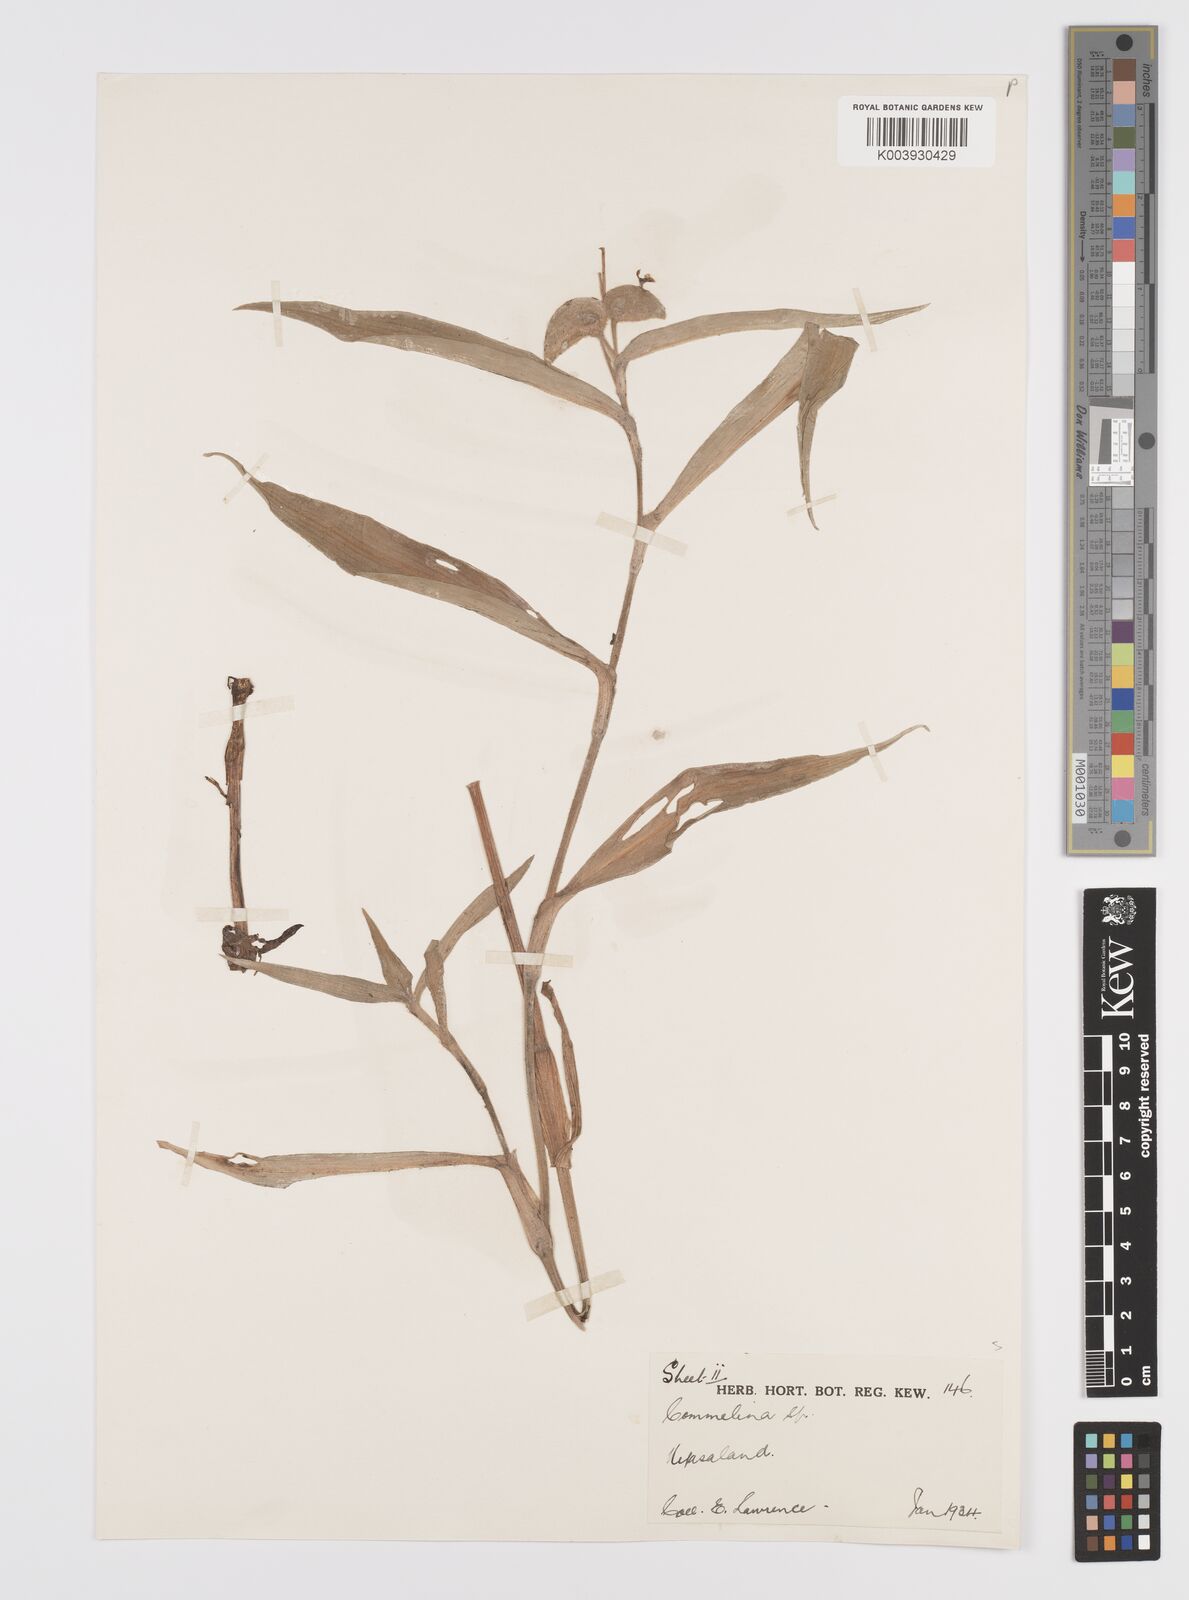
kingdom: Plantae
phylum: Tracheophyta
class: Liliopsida
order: Commelinales
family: Commelinaceae
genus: Commelina
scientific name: Commelina zambesica
